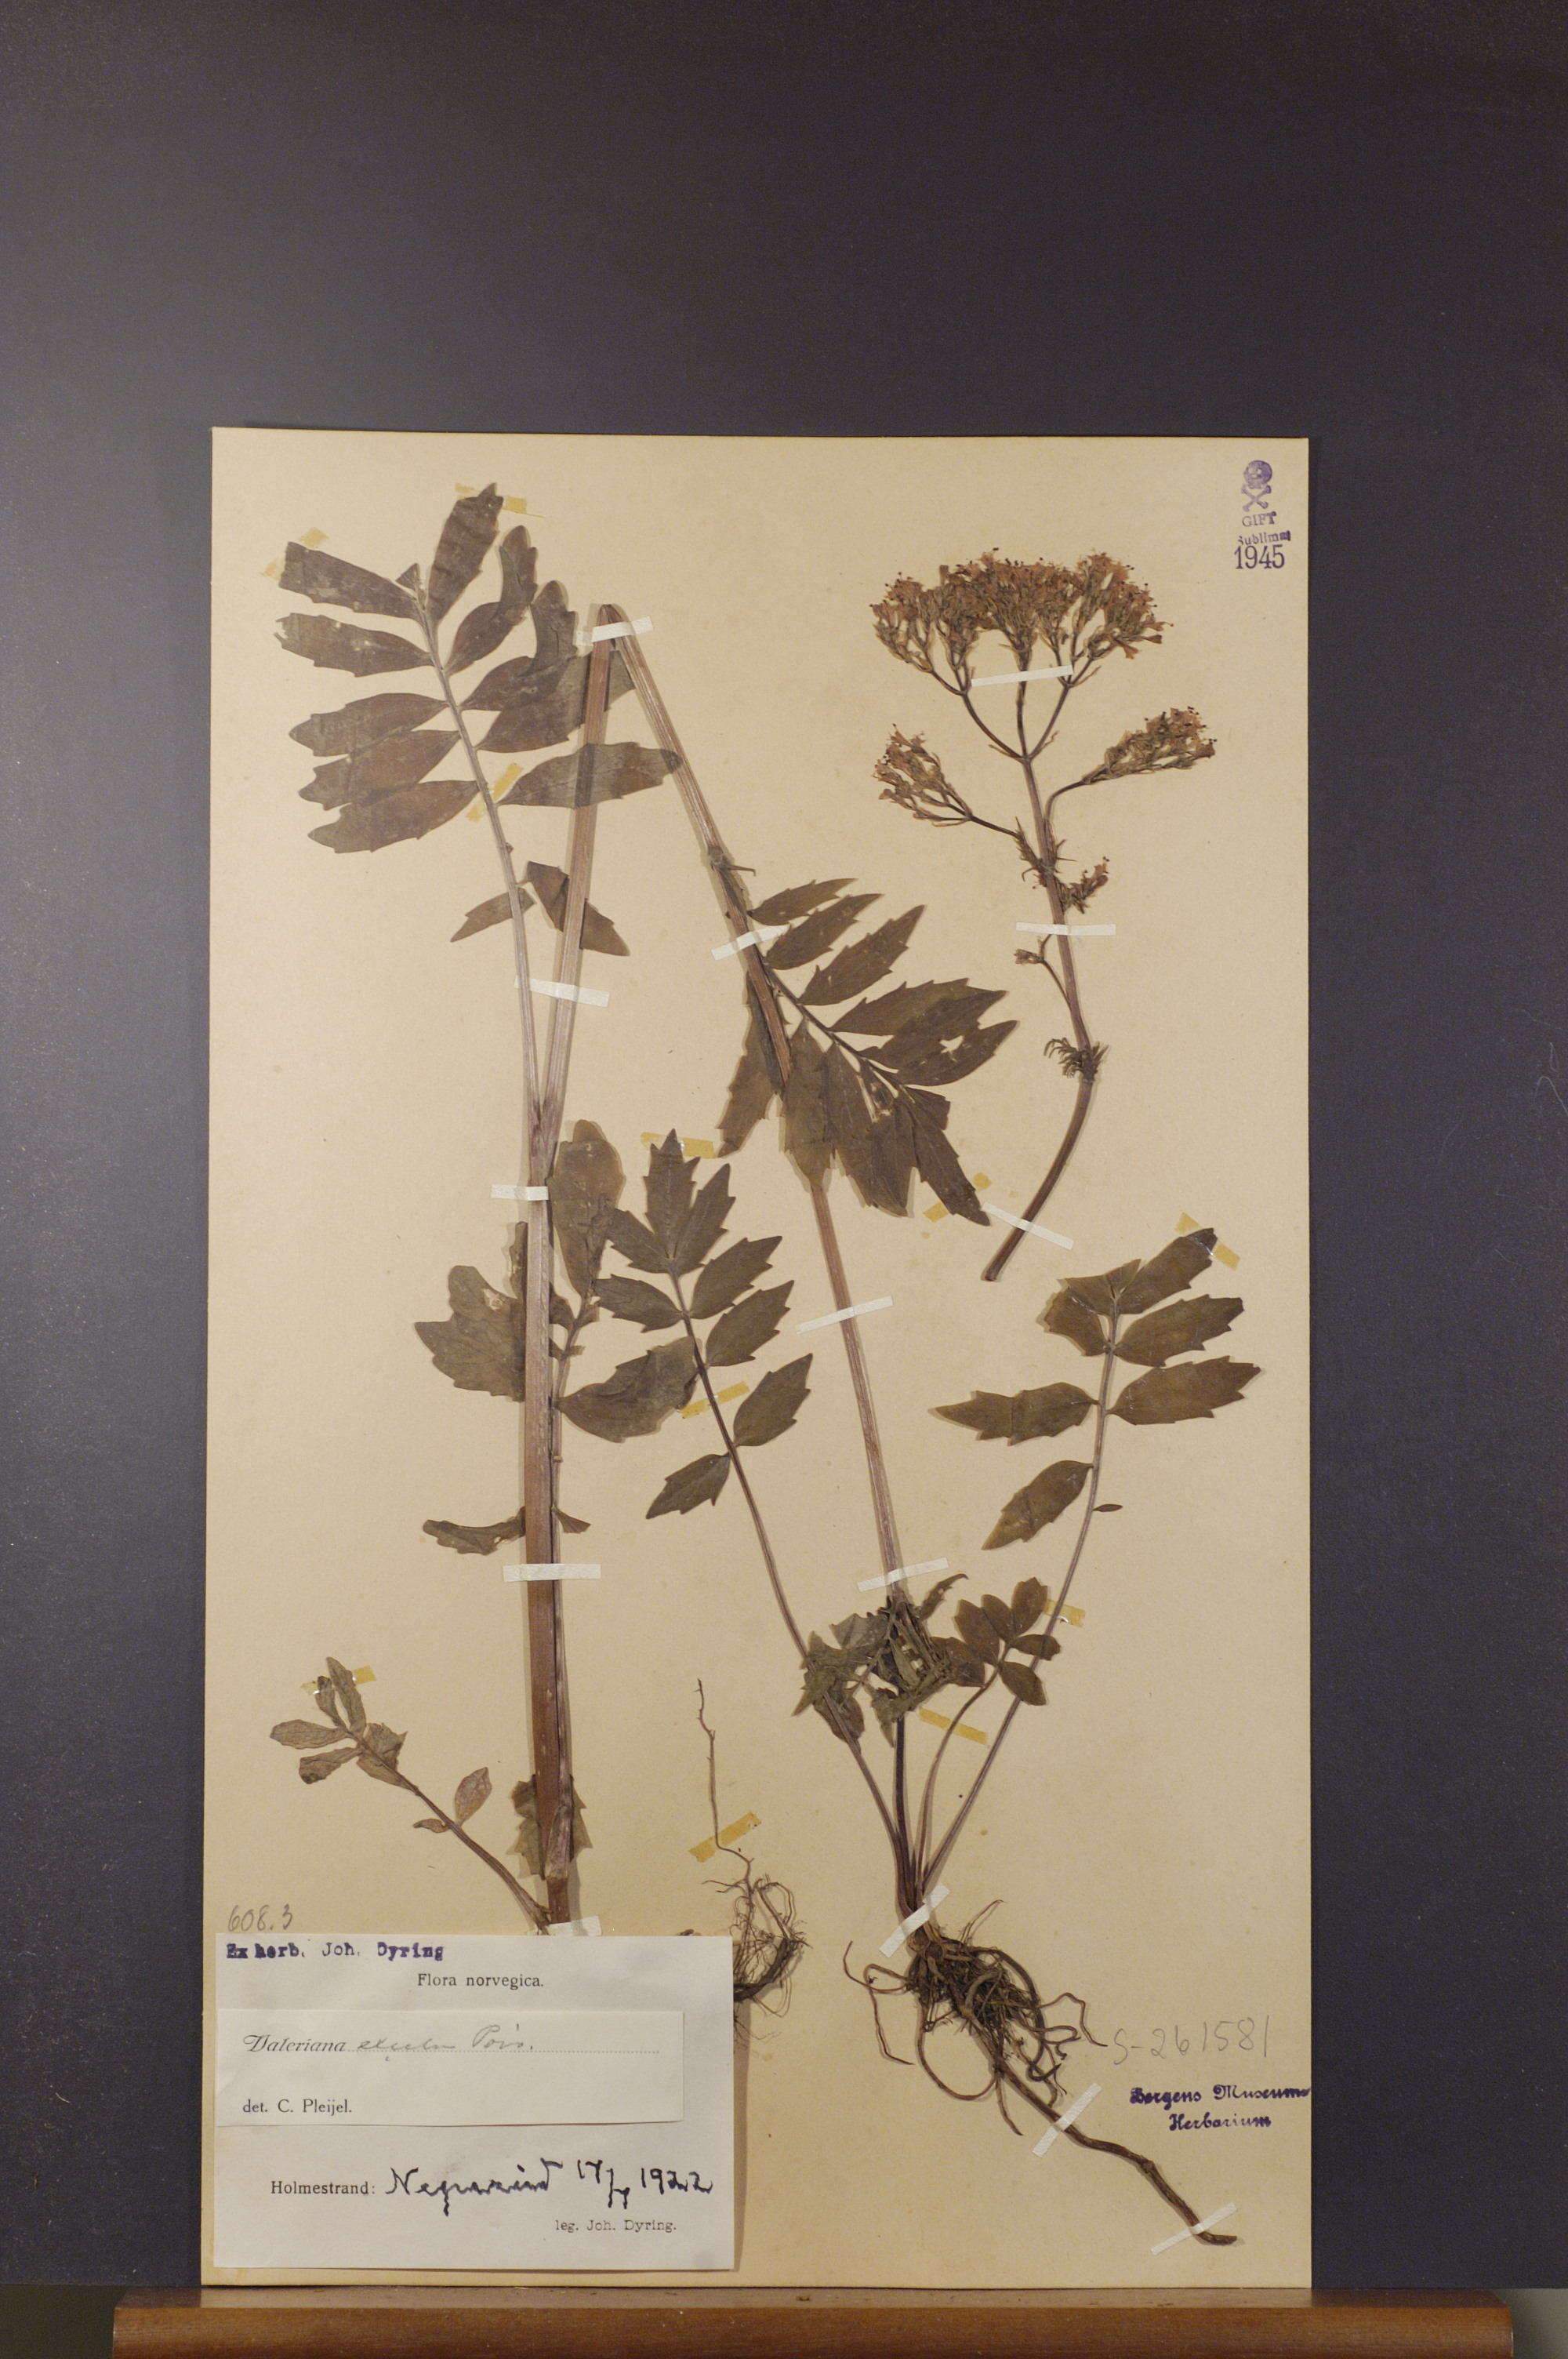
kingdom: Plantae
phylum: Tracheophyta
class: Magnoliopsida
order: Dipsacales
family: Caprifoliaceae
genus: Valeriana
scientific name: Valeriana sambucifolia
